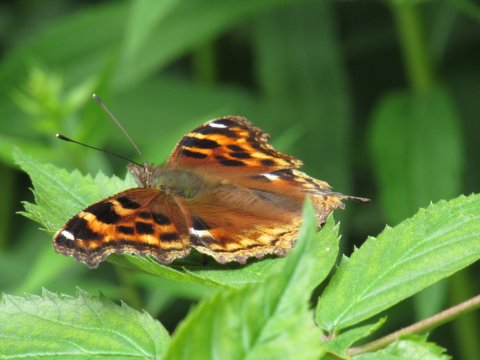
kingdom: Animalia
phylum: Arthropoda
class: Insecta
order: Lepidoptera
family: Nymphalidae
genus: Polygonia
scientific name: Polygonia vaualbum
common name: Compton Tortoiseshell
